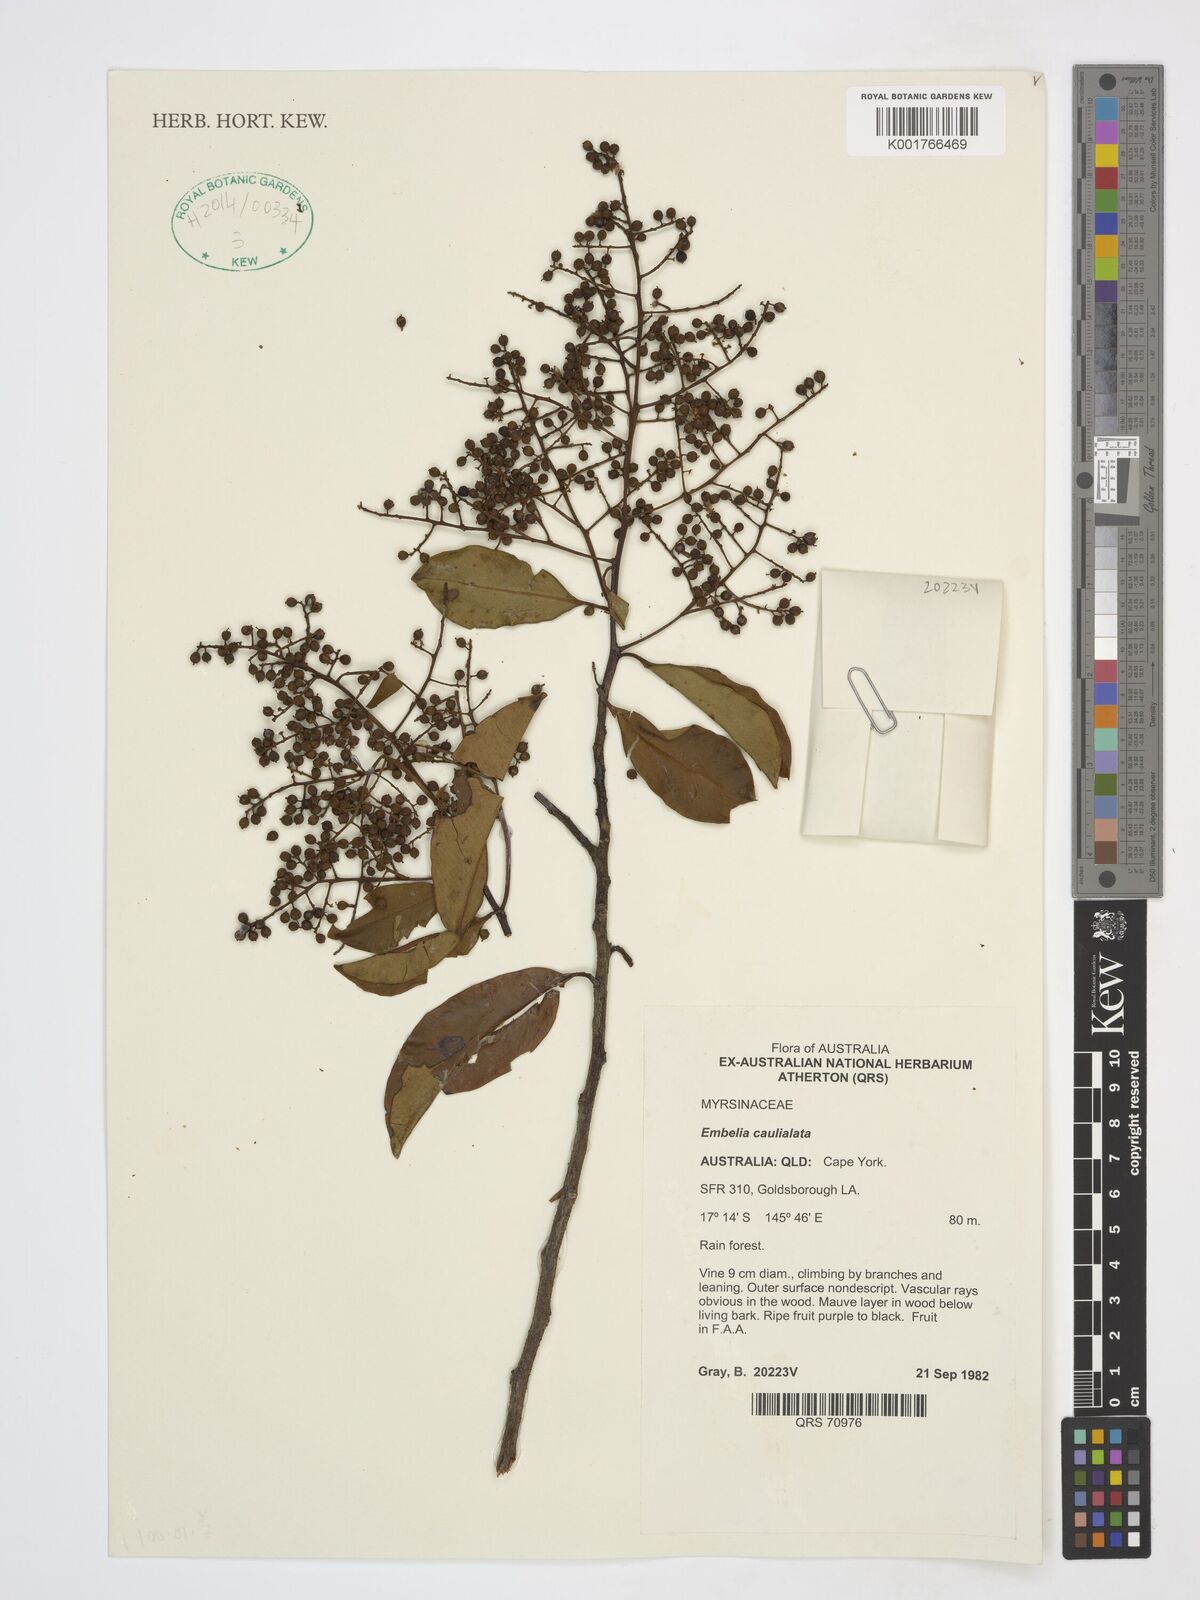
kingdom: Plantae
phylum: Tracheophyta
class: Magnoliopsida
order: Ericales
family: Primulaceae
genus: Embelia
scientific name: Embelia caulialata
